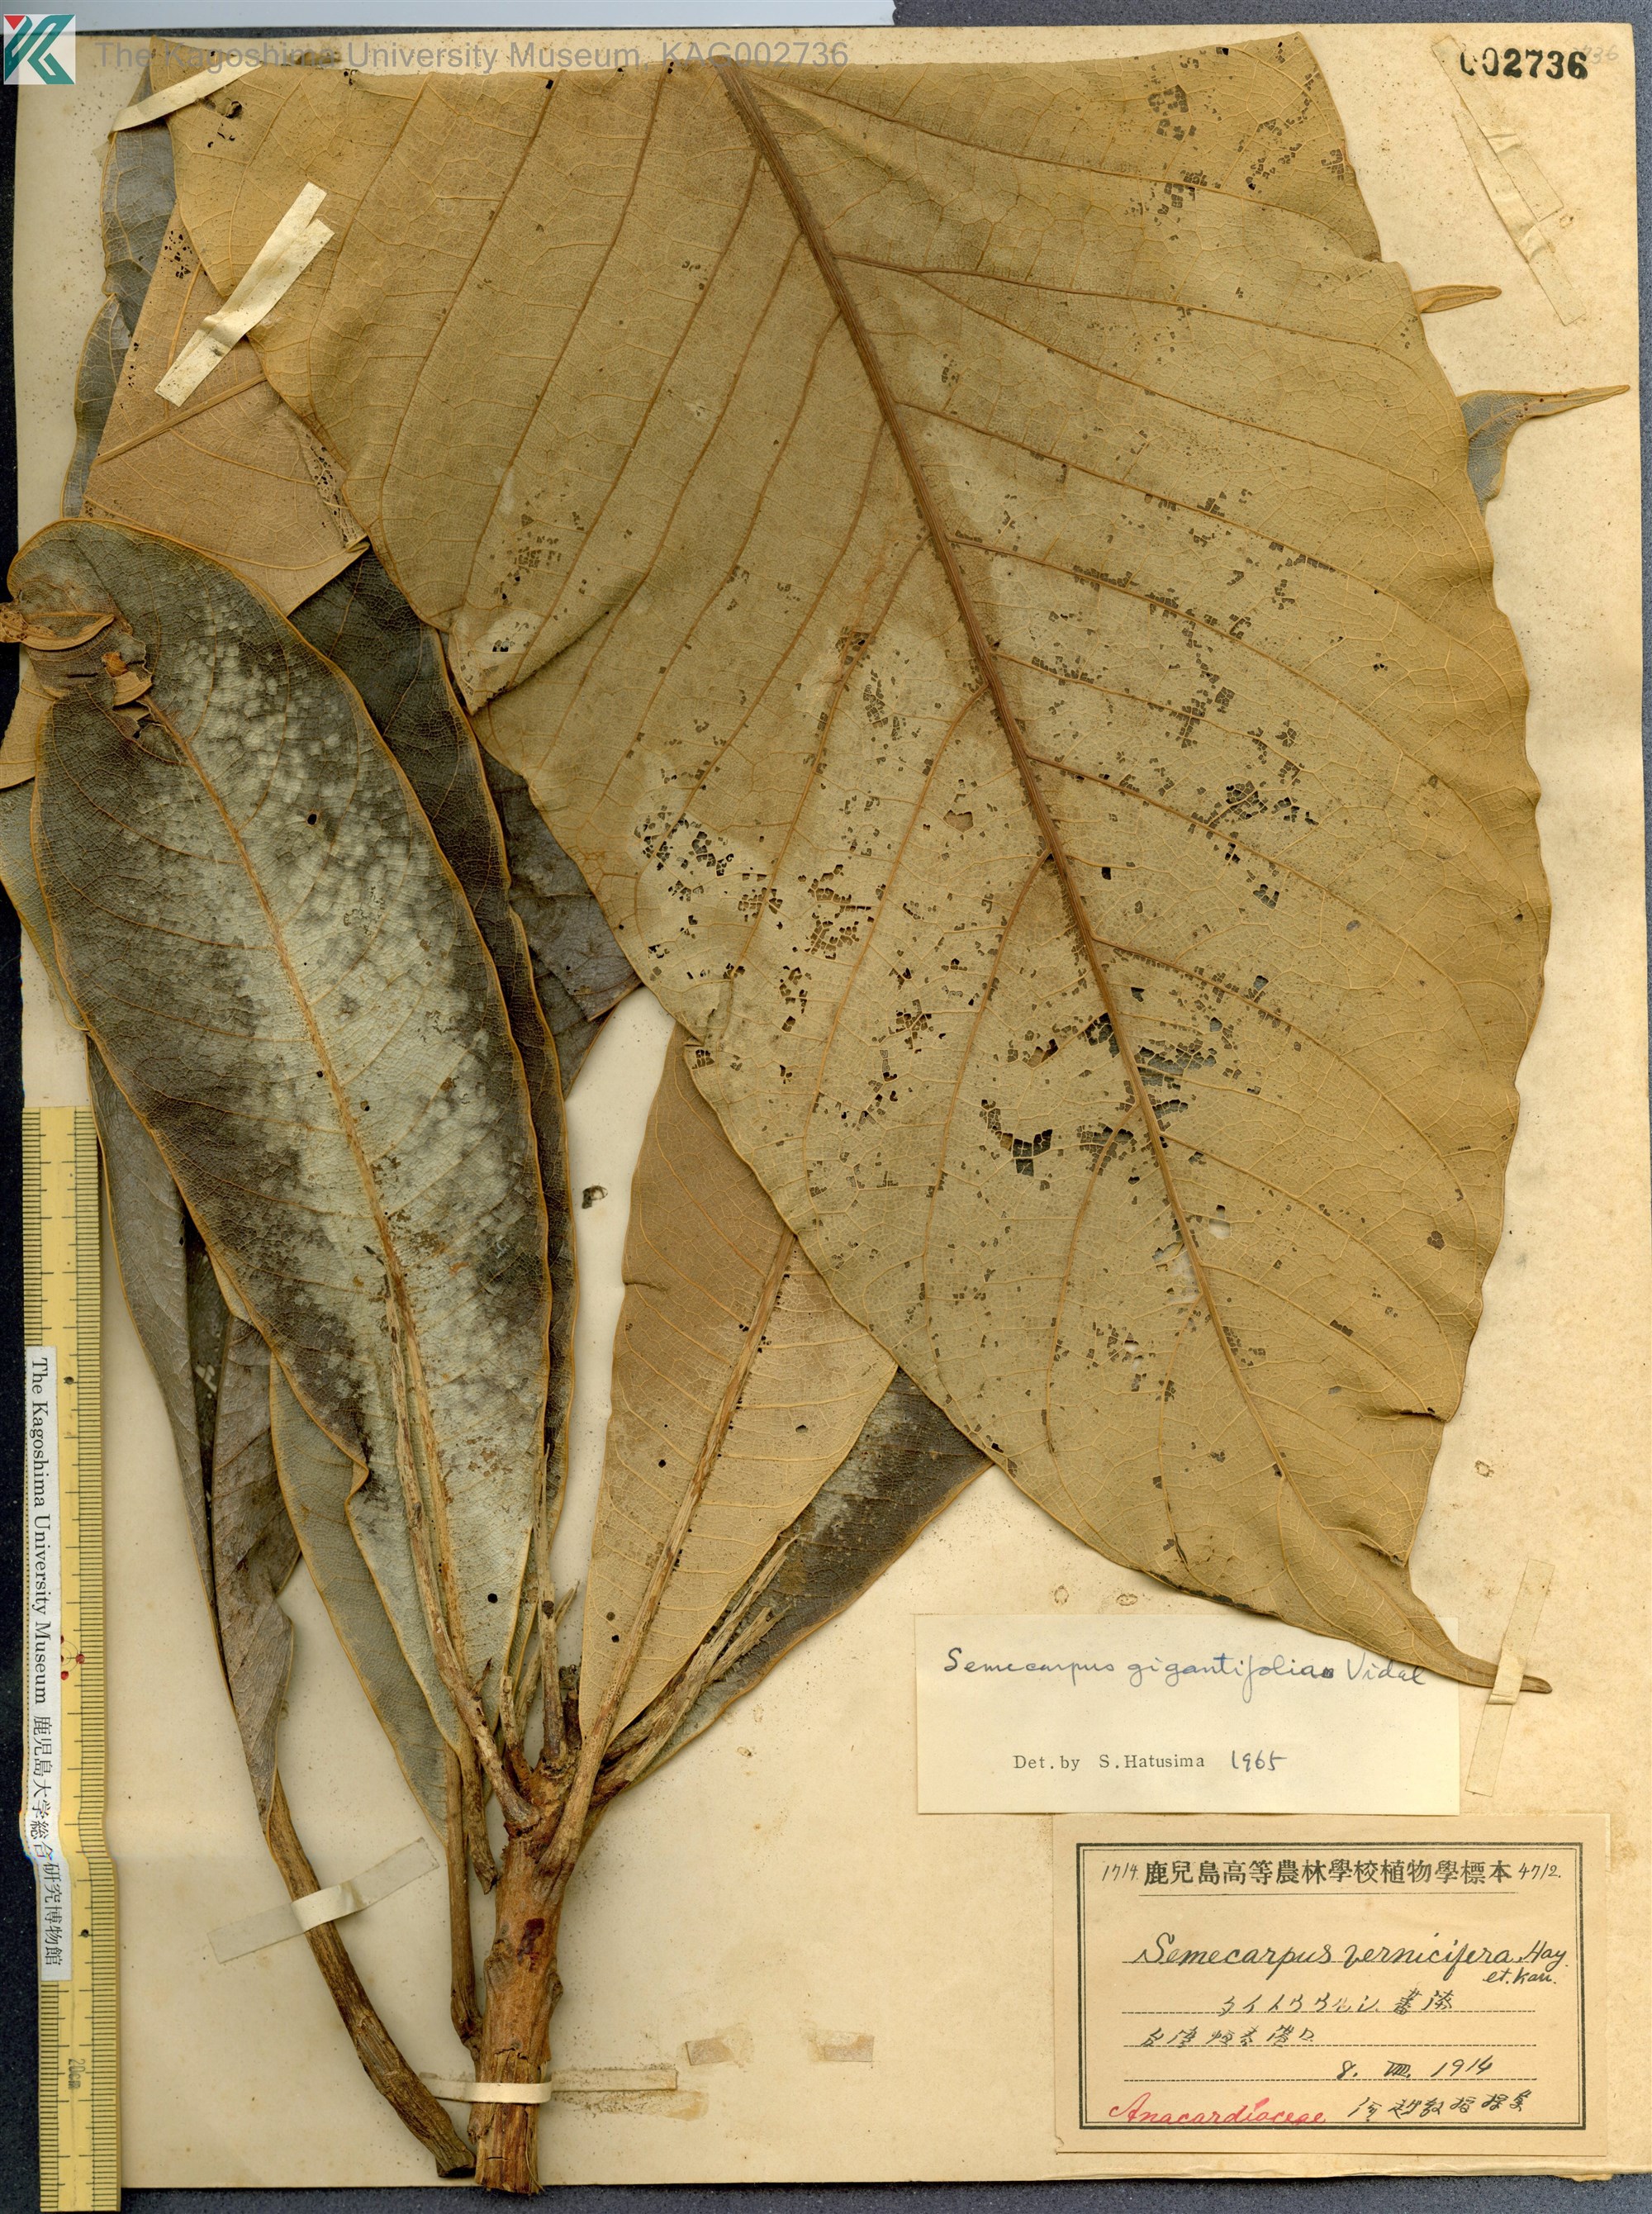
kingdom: Plantae
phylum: Tracheophyta
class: Magnoliopsida
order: Sapindales
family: Anacardiaceae
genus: Semecarpus
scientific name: Semecarpus longifolius
